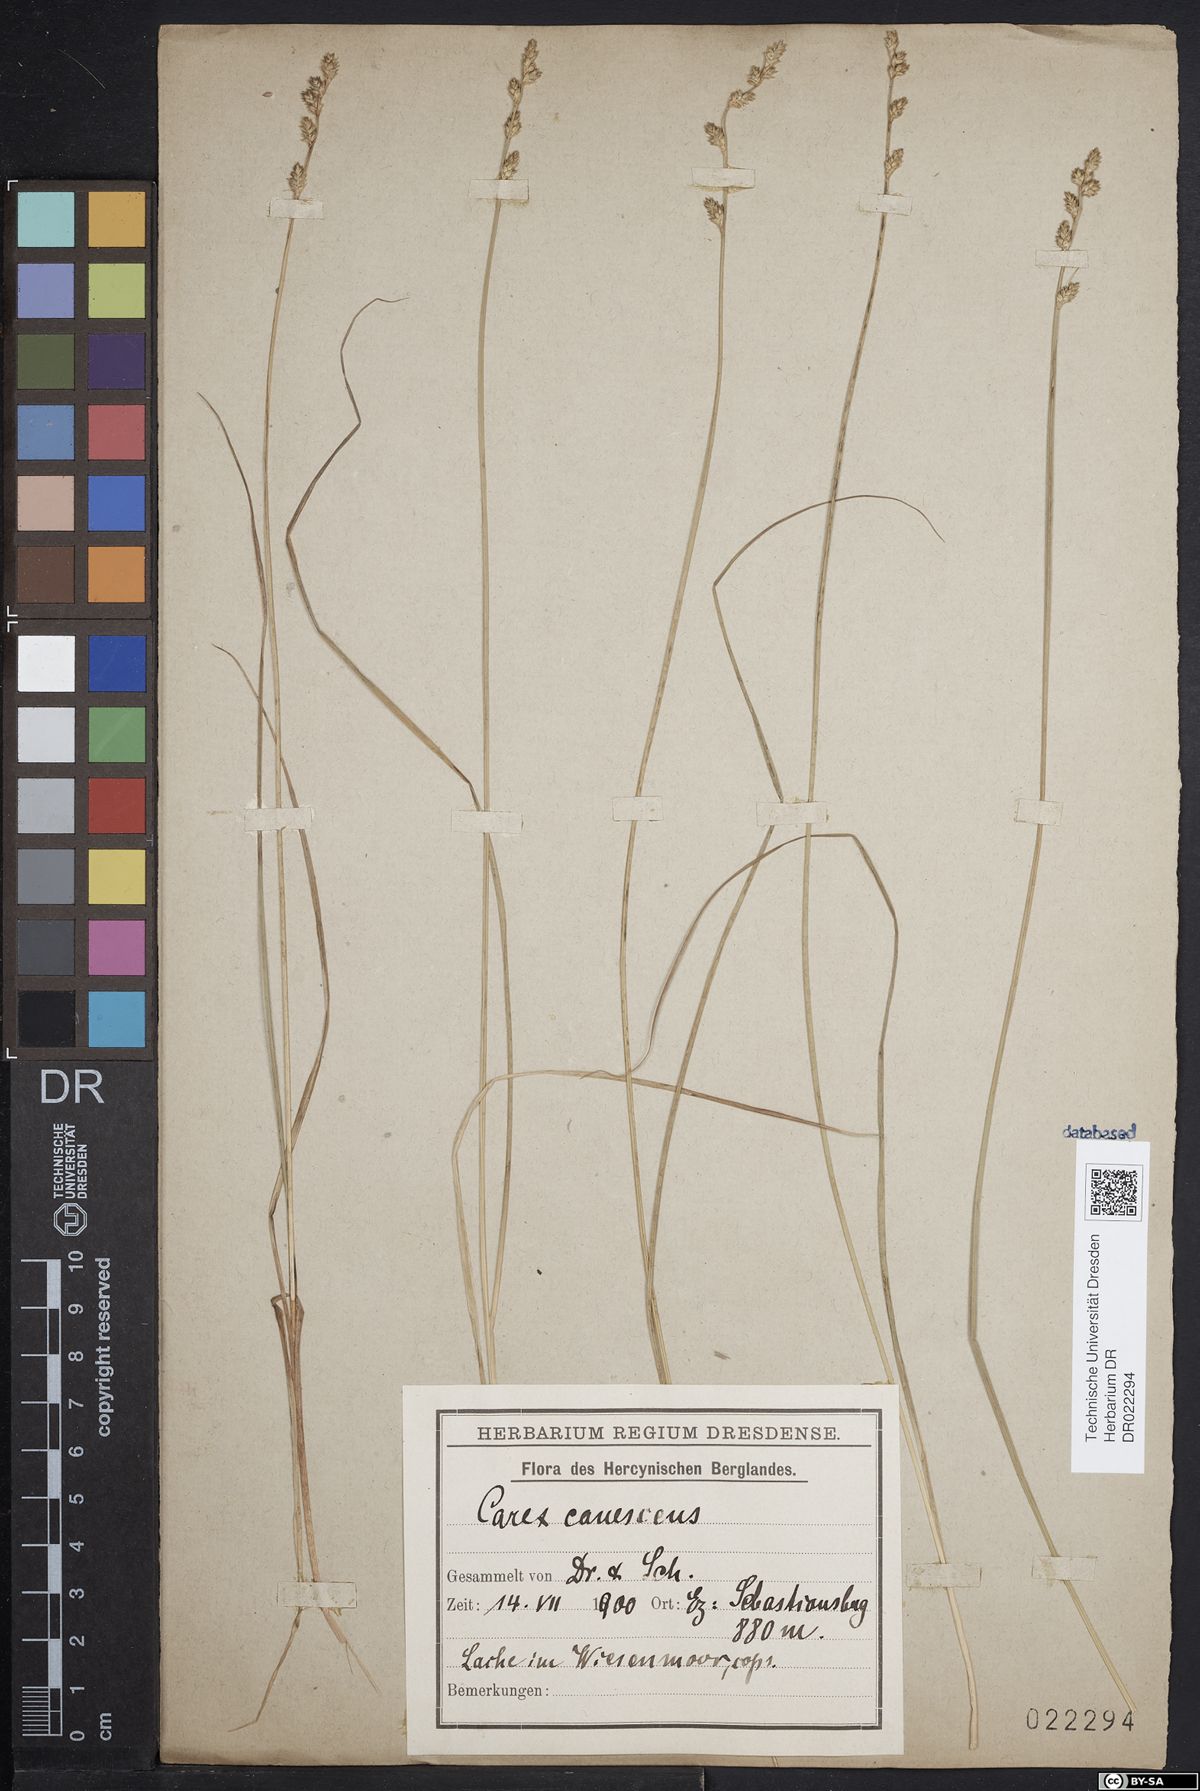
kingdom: Plantae
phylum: Tracheophyta
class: Liliopsida
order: Poales
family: Cyperaceae
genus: Carex
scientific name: Carex canescens
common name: White sedge
